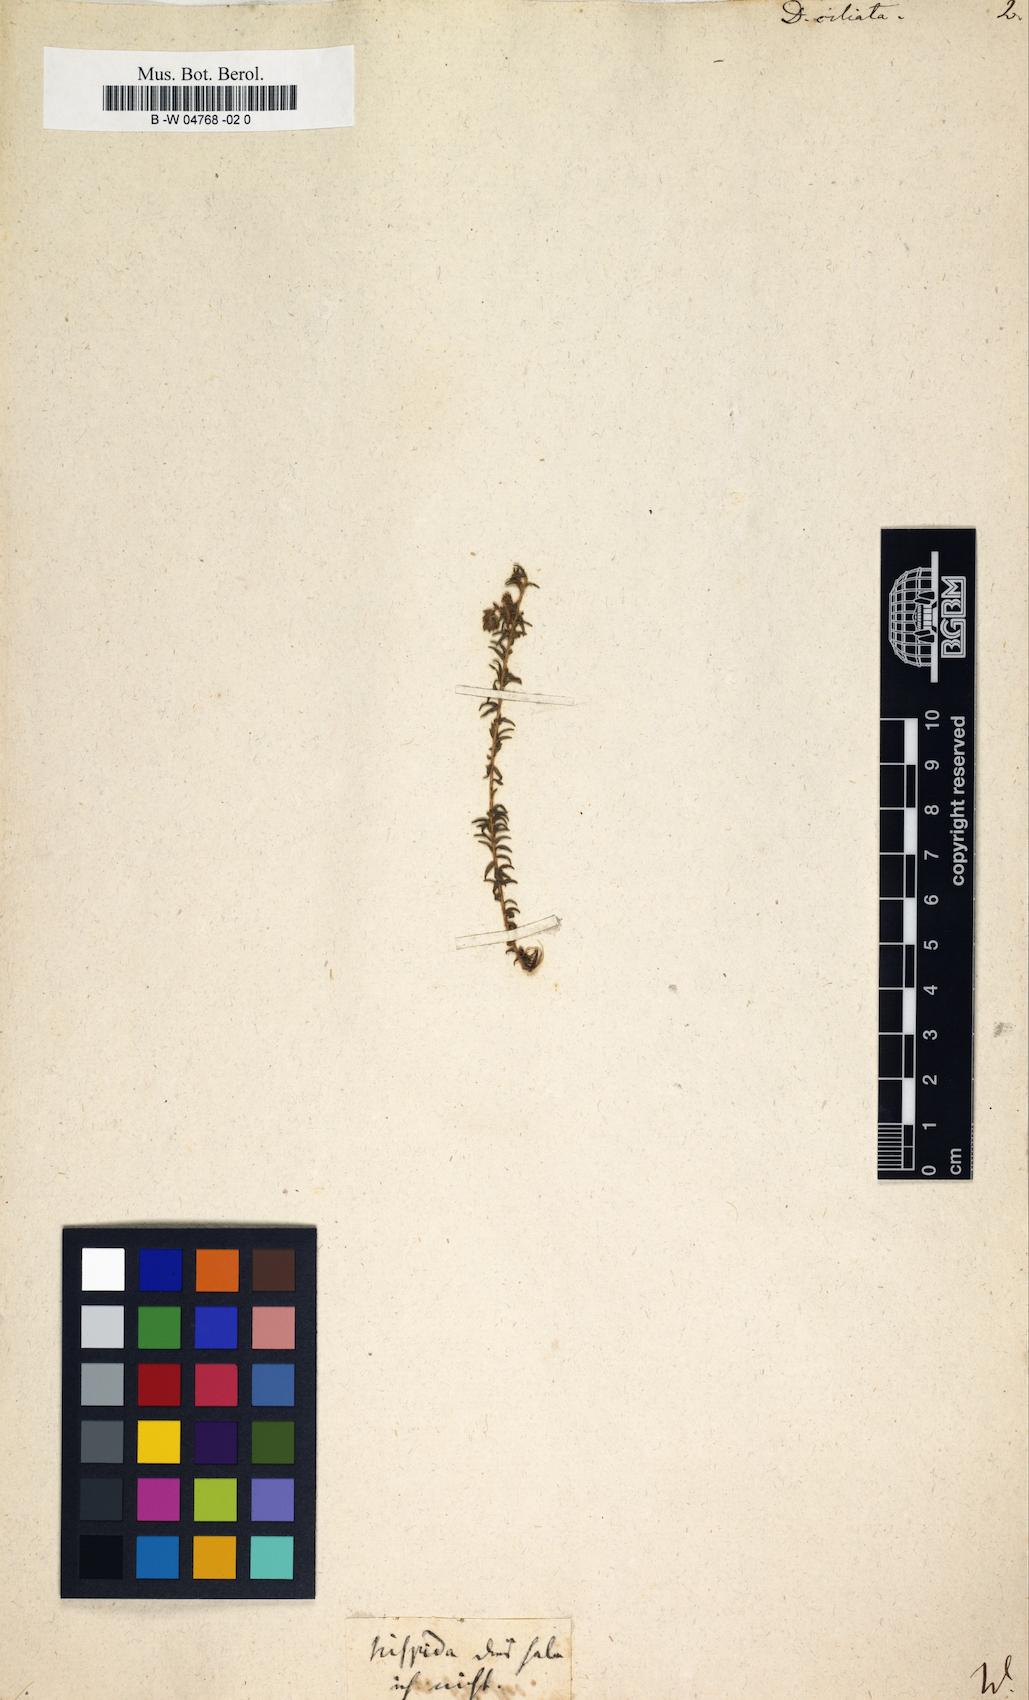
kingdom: Plantae
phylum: Tracheophyta
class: Magnoliopsida
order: Sapindales
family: Rutaceae
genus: Agathosma
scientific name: Agathosma ciliata
